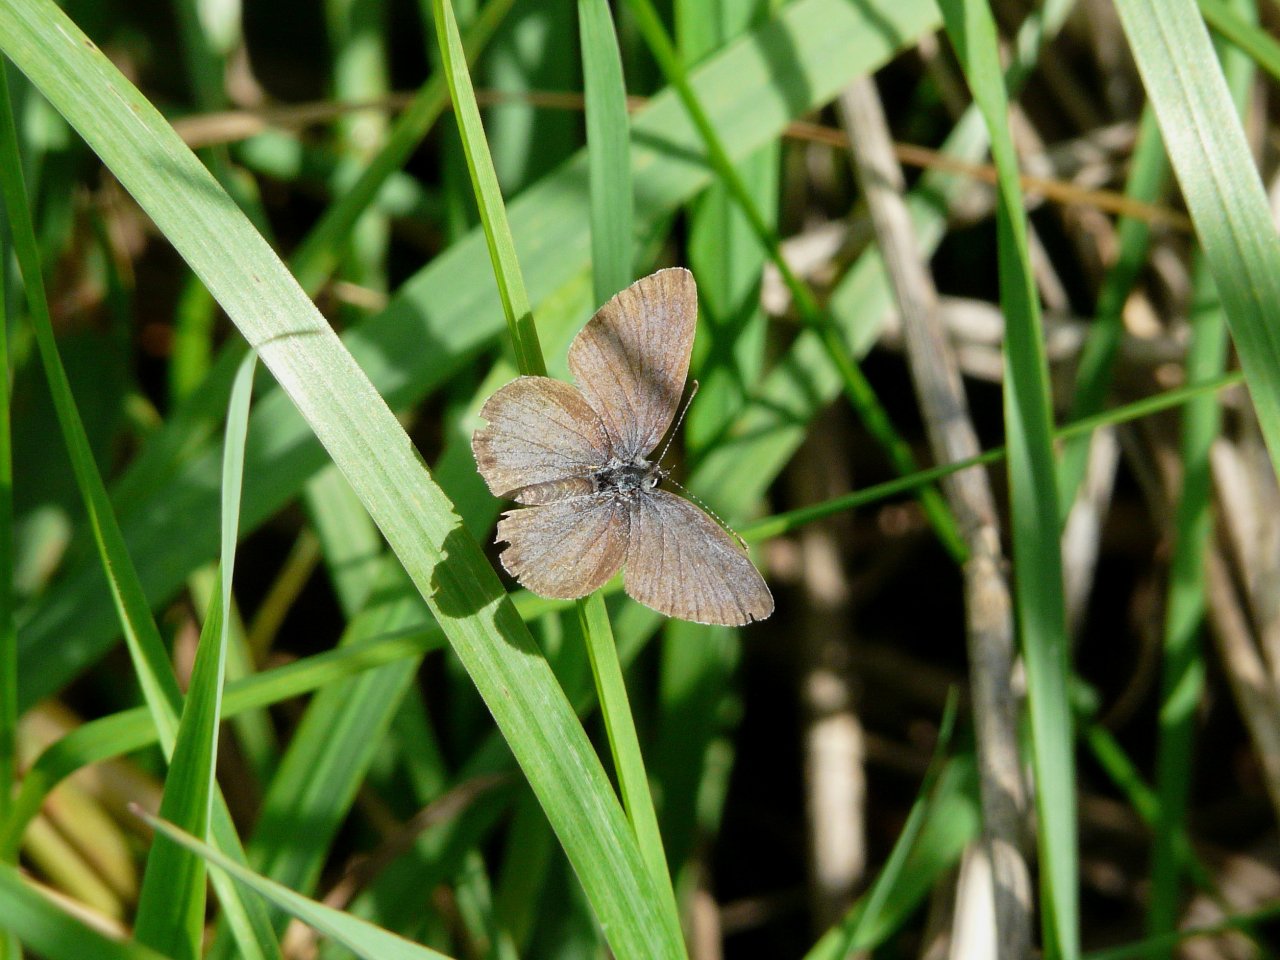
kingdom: Animalia
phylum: Arthropoda
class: Insecta
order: Lepidoptera
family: Lycaenidae
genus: Elkalyce
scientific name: Elkalyce comyntas
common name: Eastern Tailed-Blue
